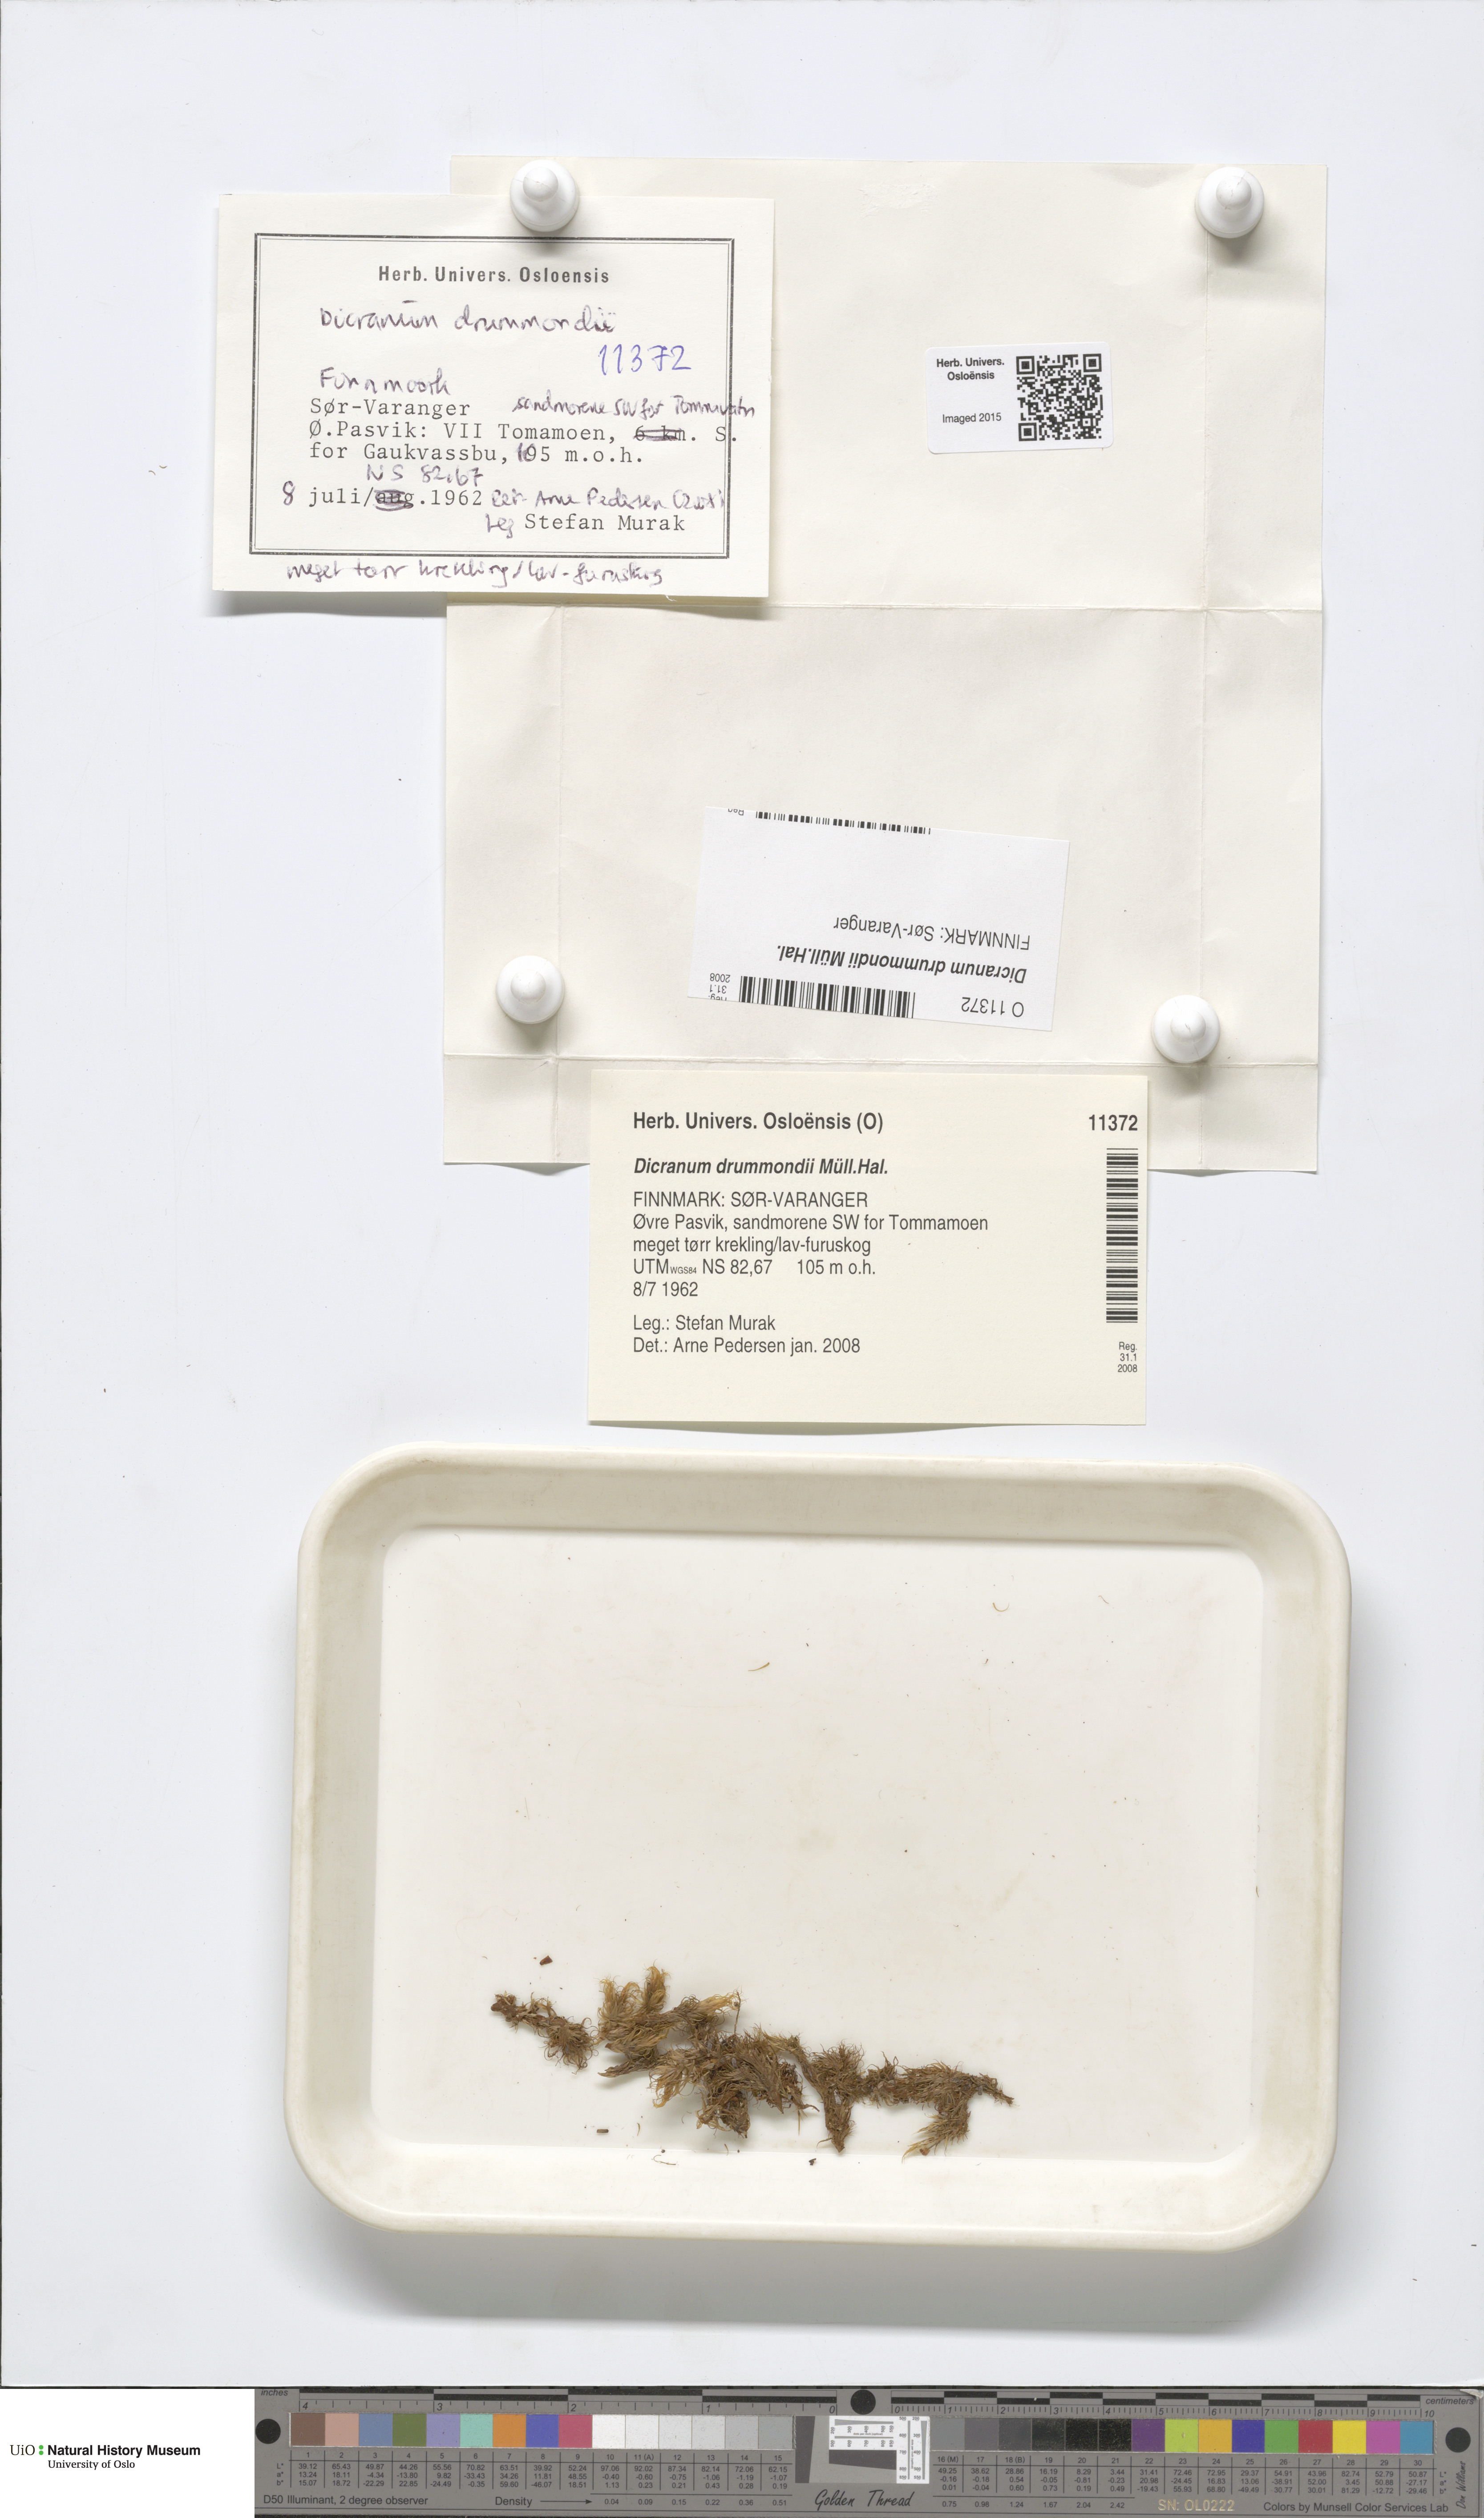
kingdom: Plantae
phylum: Bryophyta
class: Bryopsida
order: Dicranales
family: Dicranaceae
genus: Dicranum
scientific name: Dicranum drummondii
